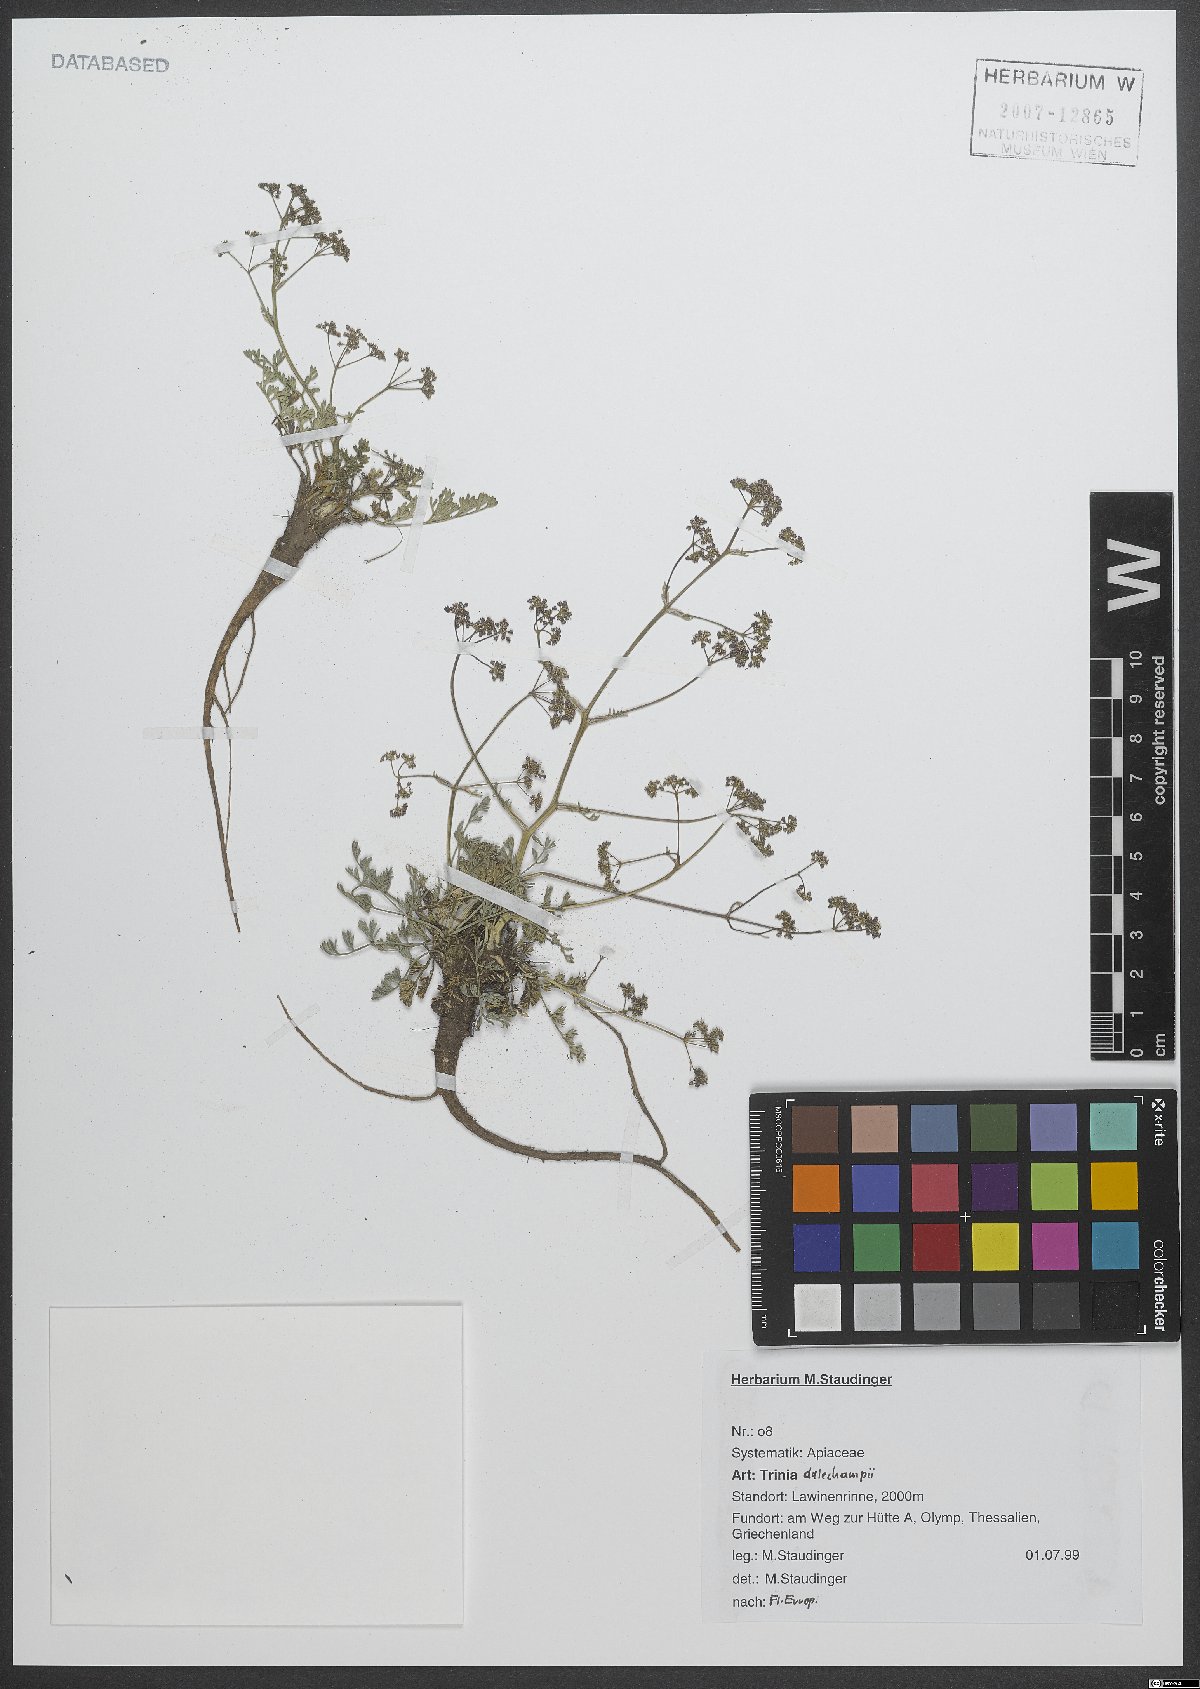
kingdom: Plantae
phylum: Tracheophyta
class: Magnoliopsida
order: Apiales
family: Apiaceae
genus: Trinia
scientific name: Trinia dalechampii
